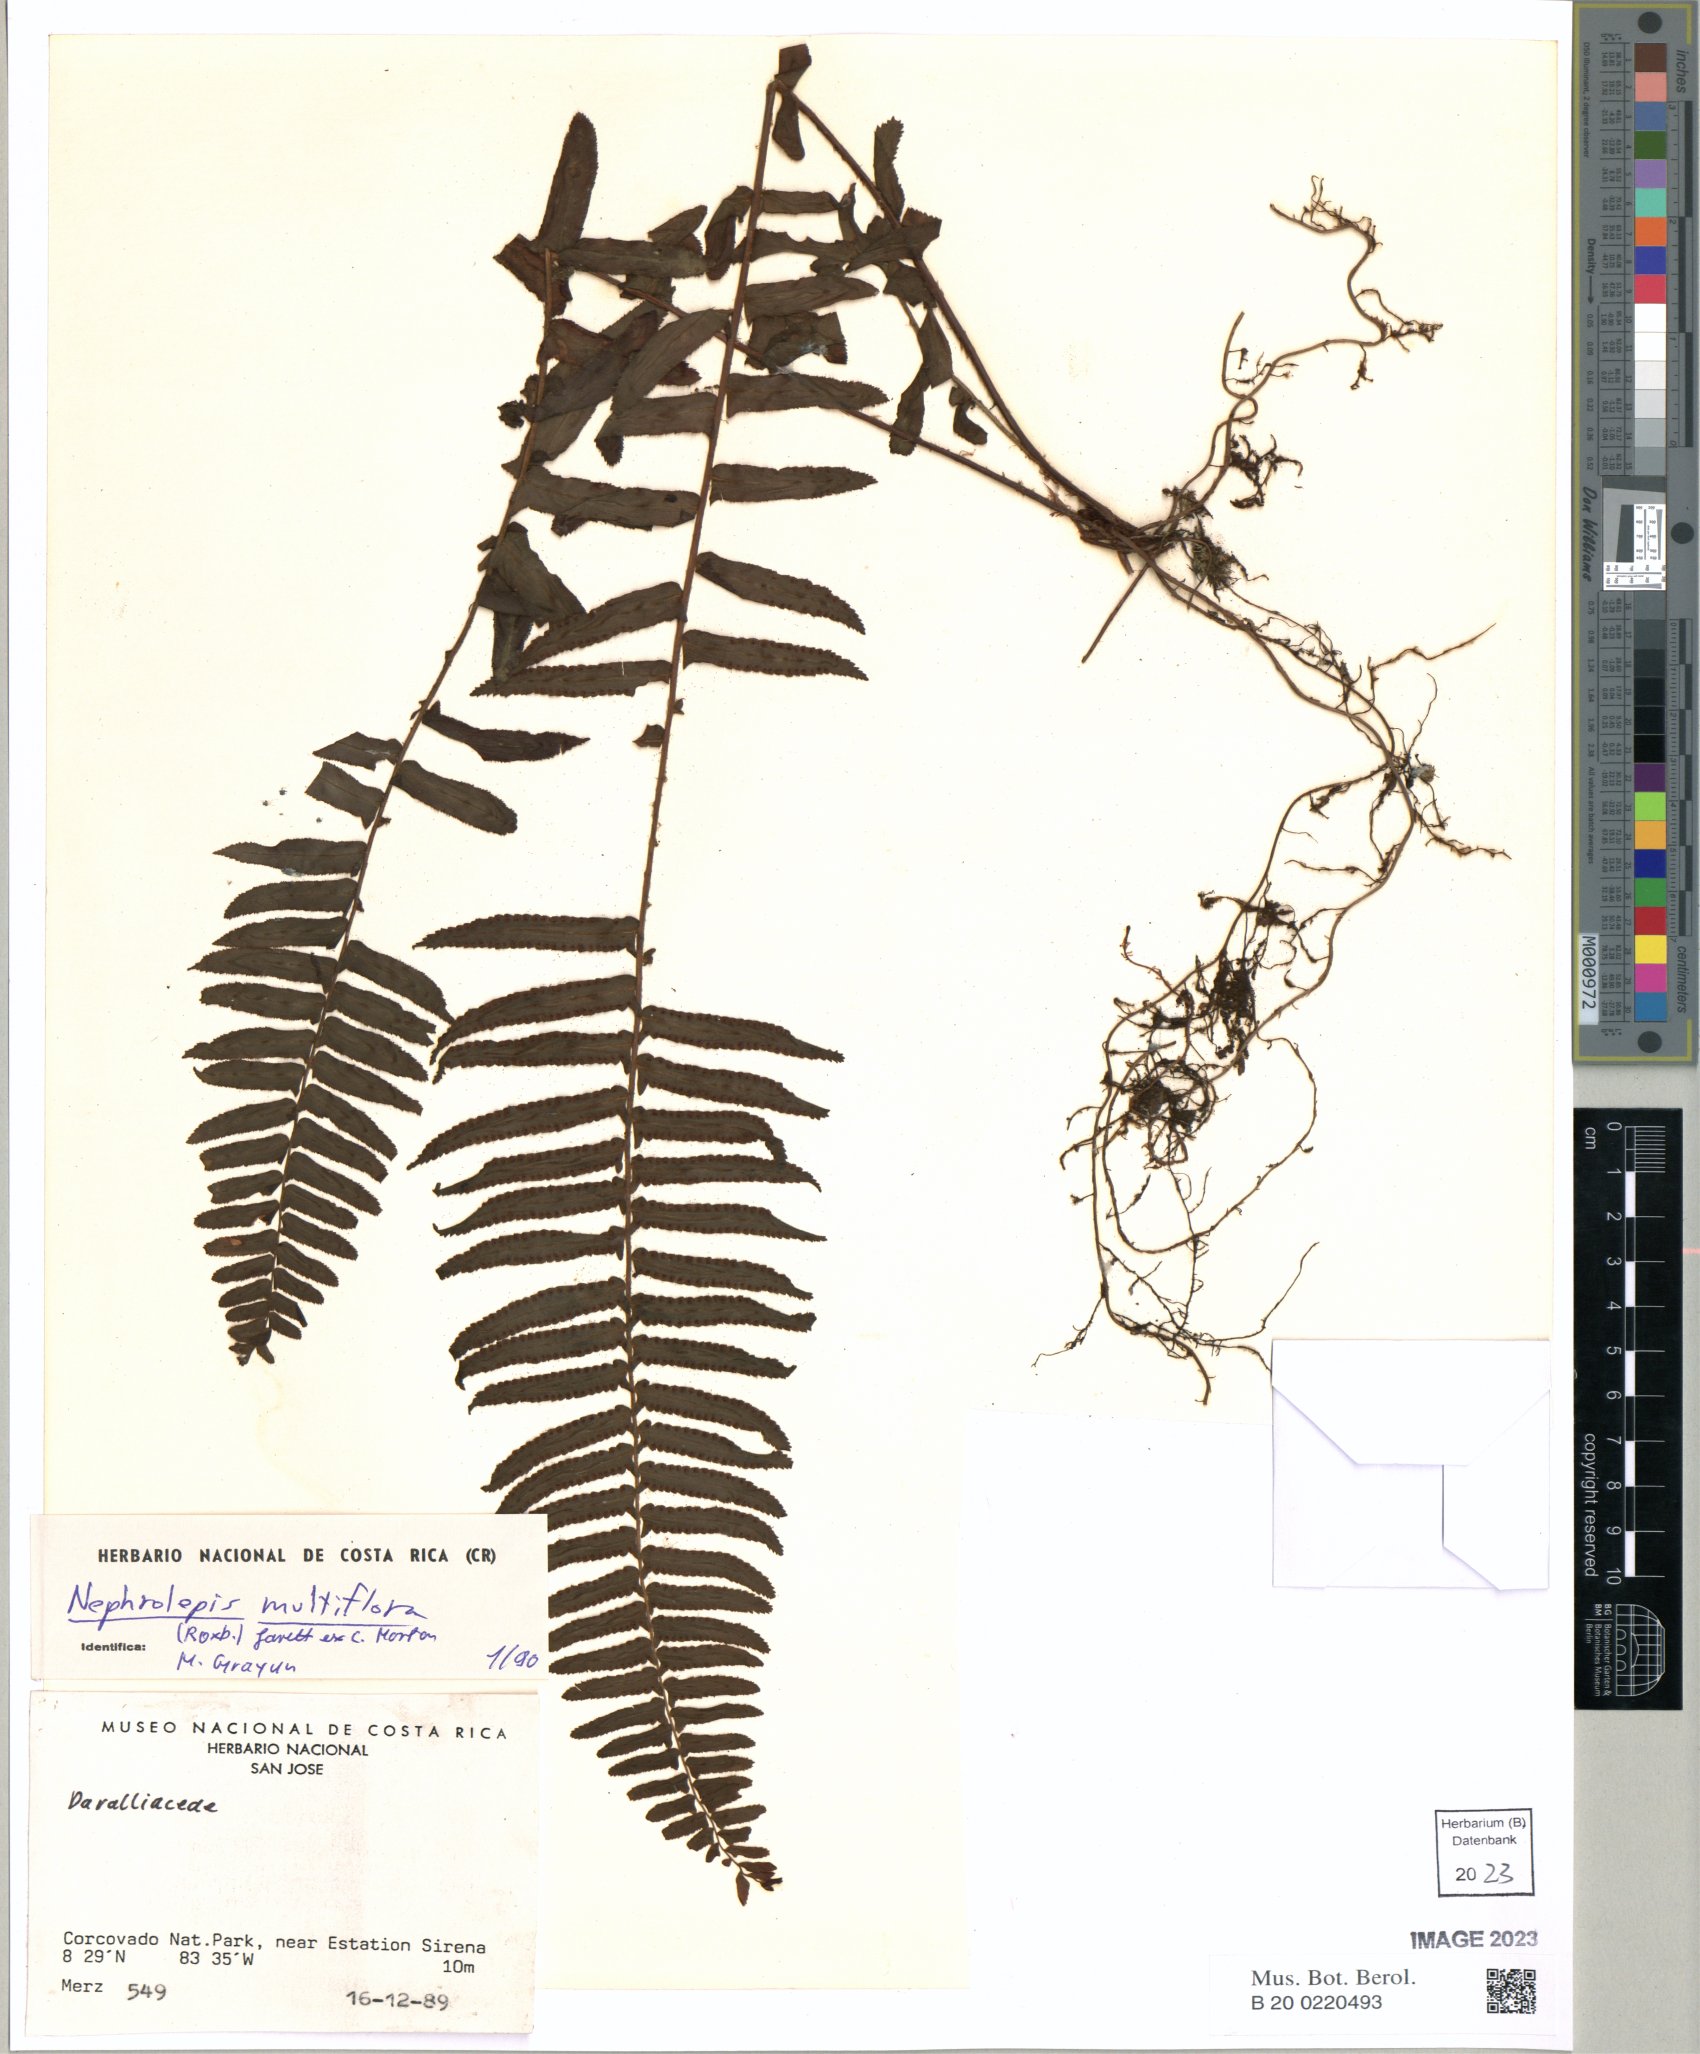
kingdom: Plantae
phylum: Tracheophyta
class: Polypodiopsida
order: Polypodiales
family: Nephrolepidaceae
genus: Nephrolepis
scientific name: Nephrolepis brownii
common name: Asian swordfern
